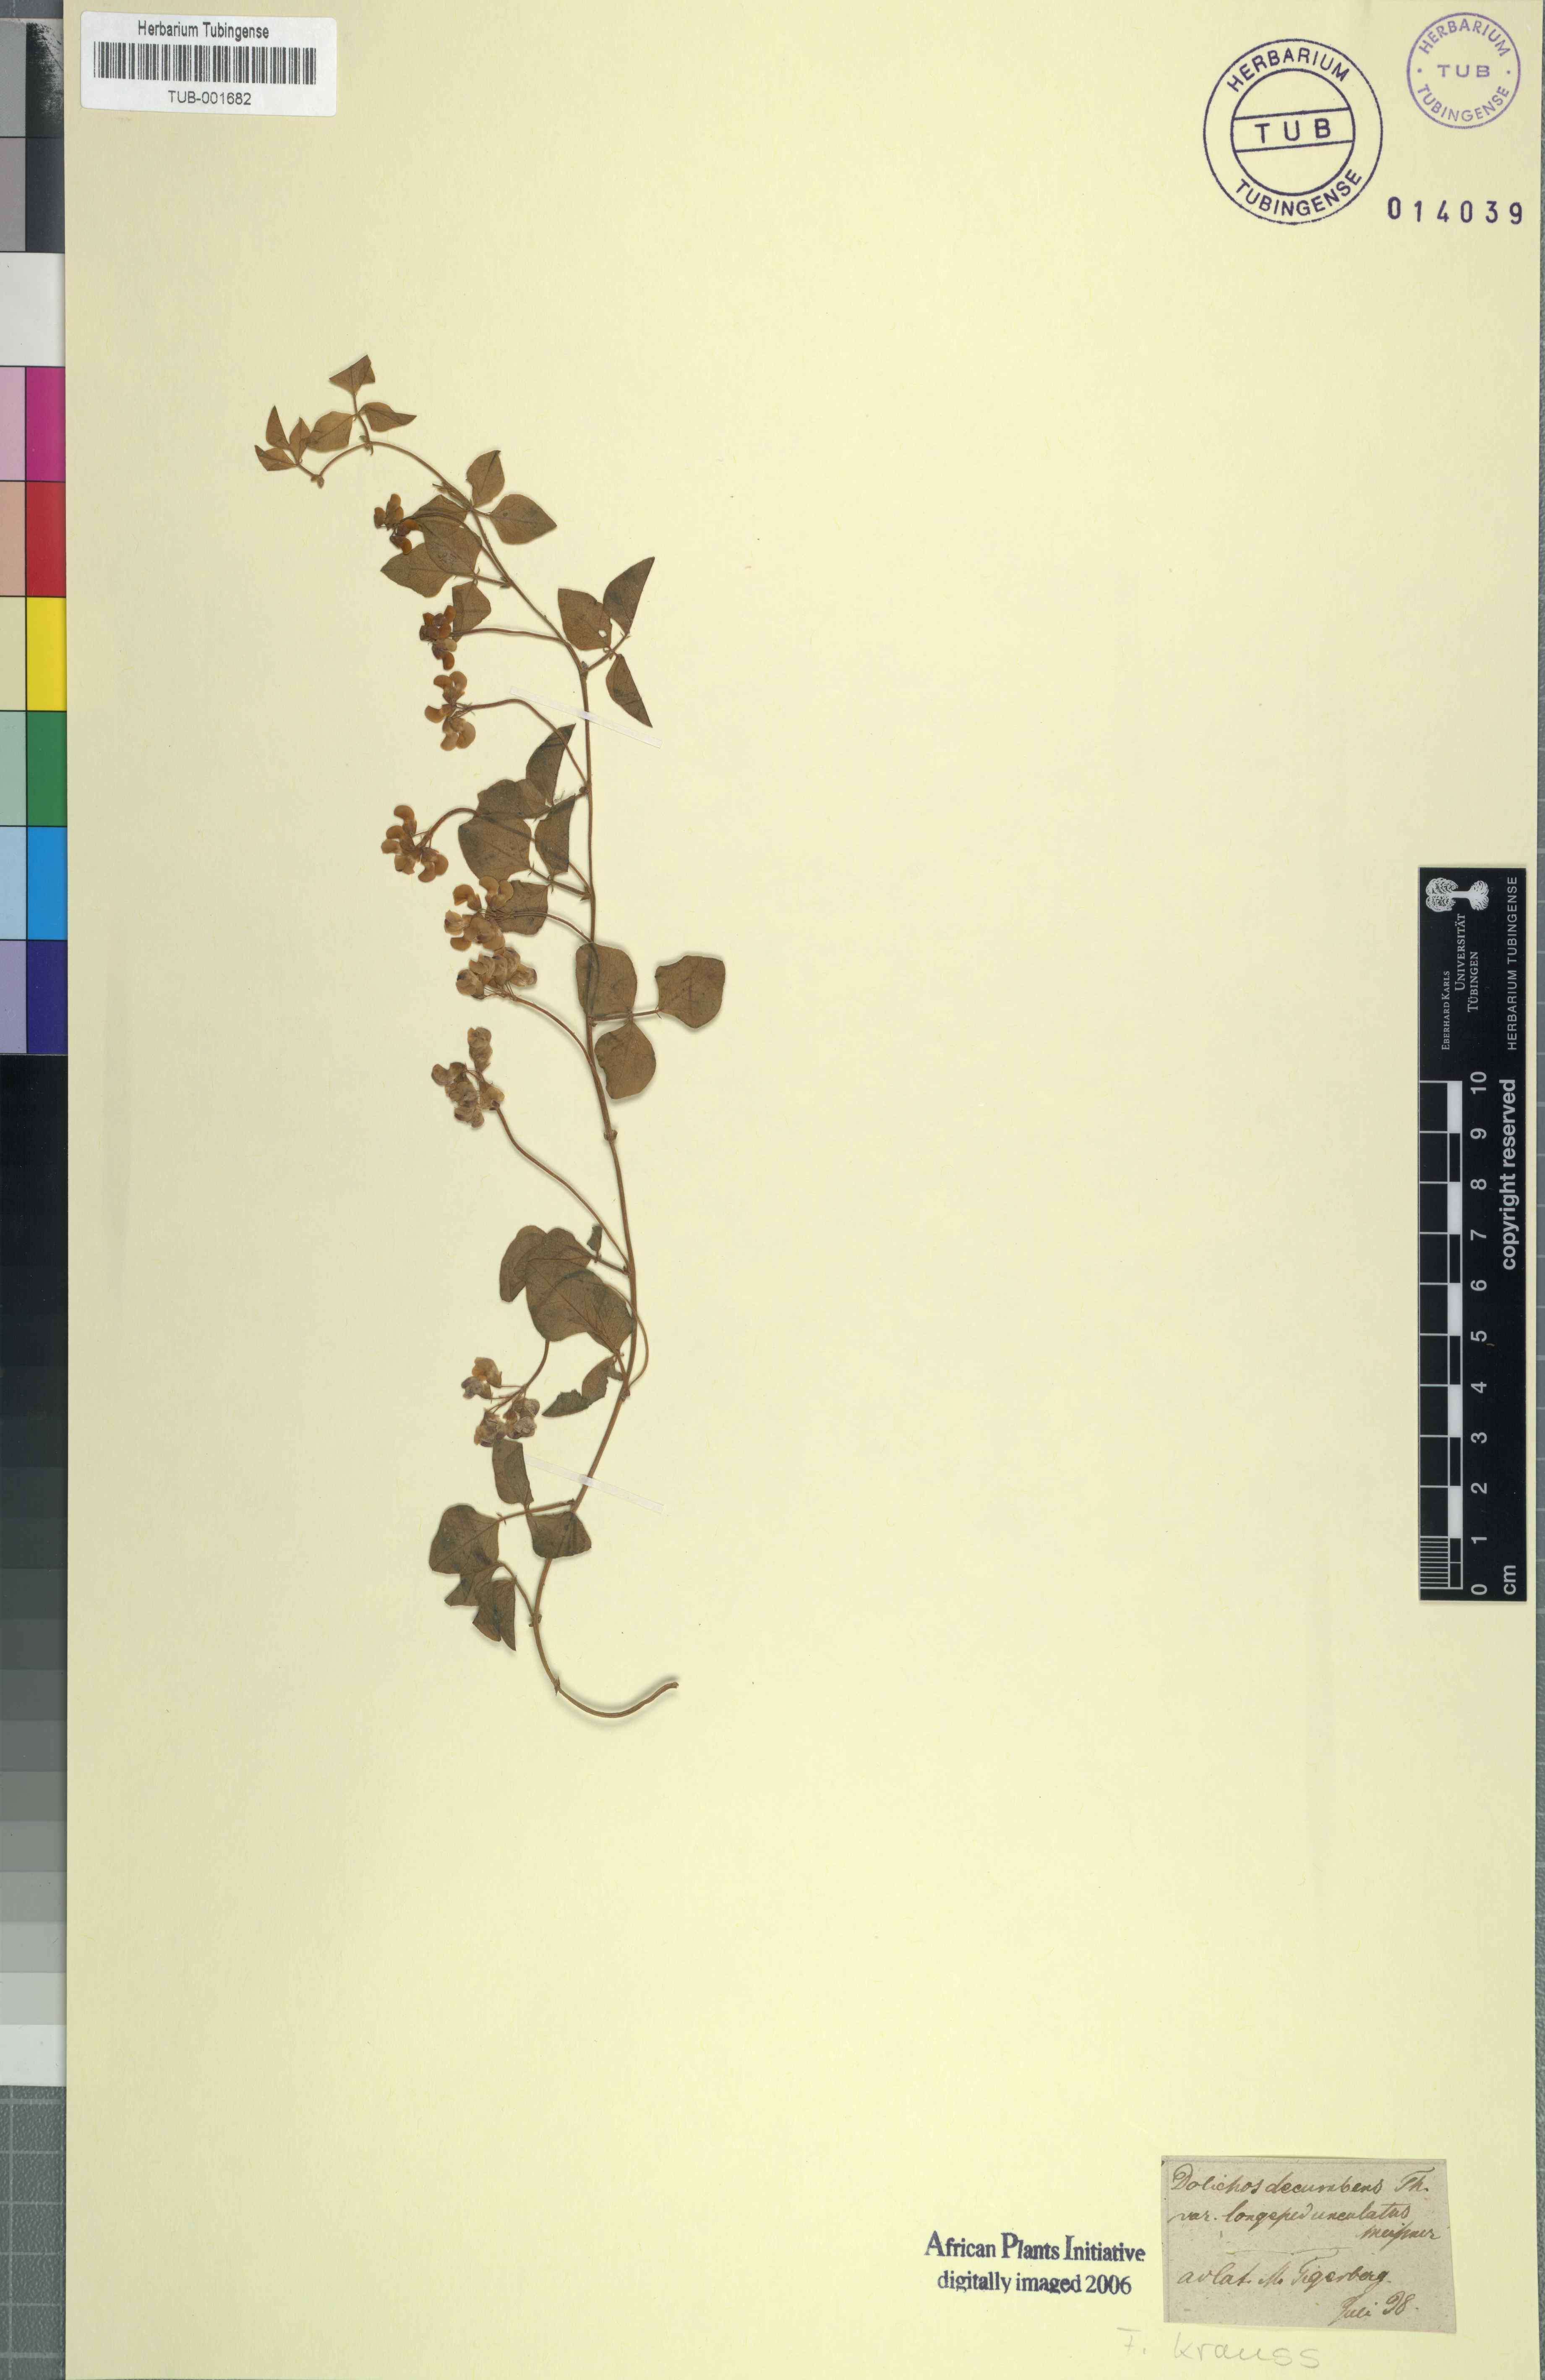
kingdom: Plantae
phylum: Tracheophyta
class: Magnoliopsida
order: Fabales
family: Fabaceae
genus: Dolichos
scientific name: Dolichos decumbens
